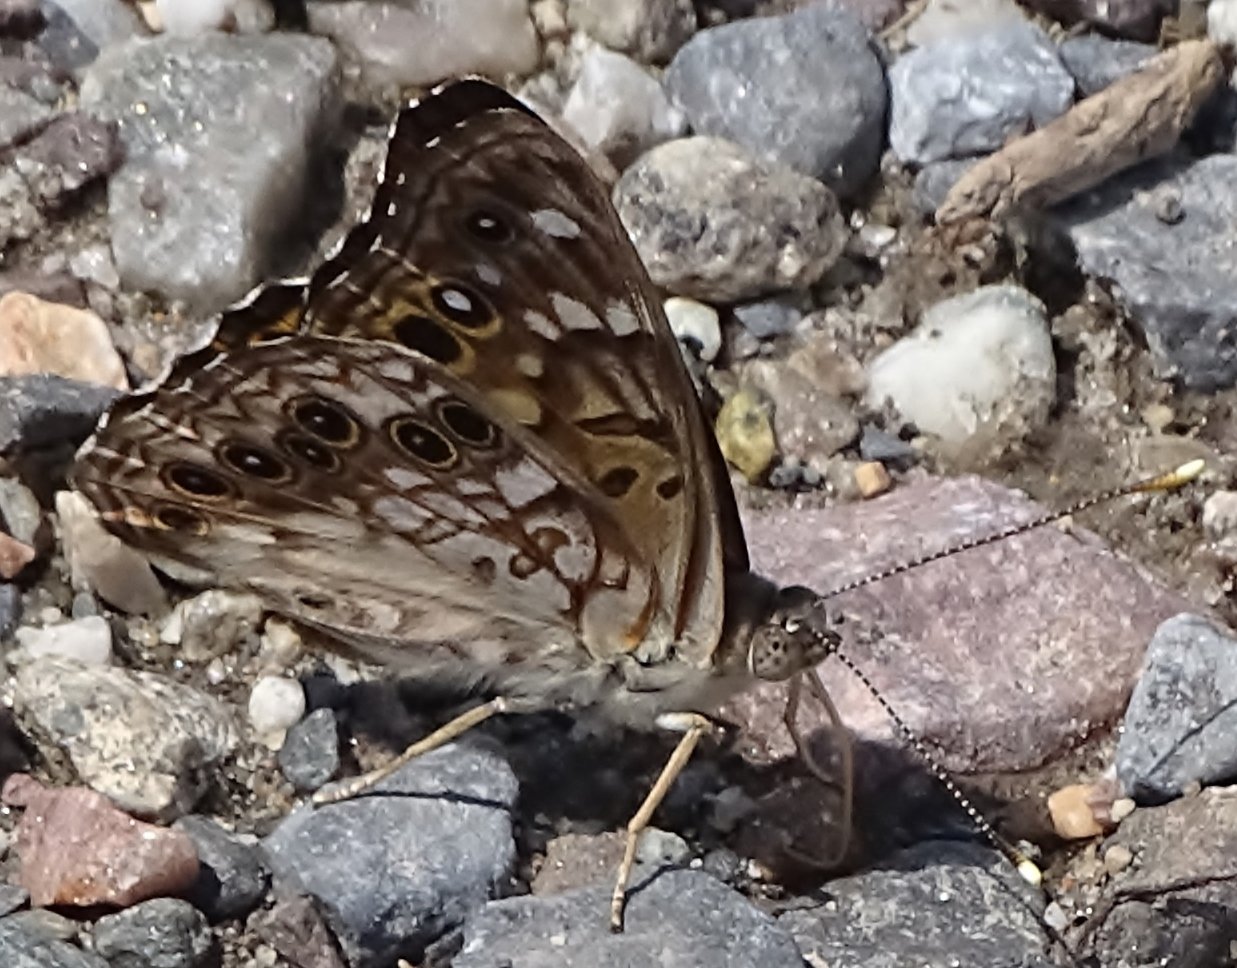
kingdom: Animalia
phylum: Arthropoda
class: Insecta
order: Lepidoptera
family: Nymphalidae
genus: Asterocampa
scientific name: Asterocampa celtis
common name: Hackberry Emperor
